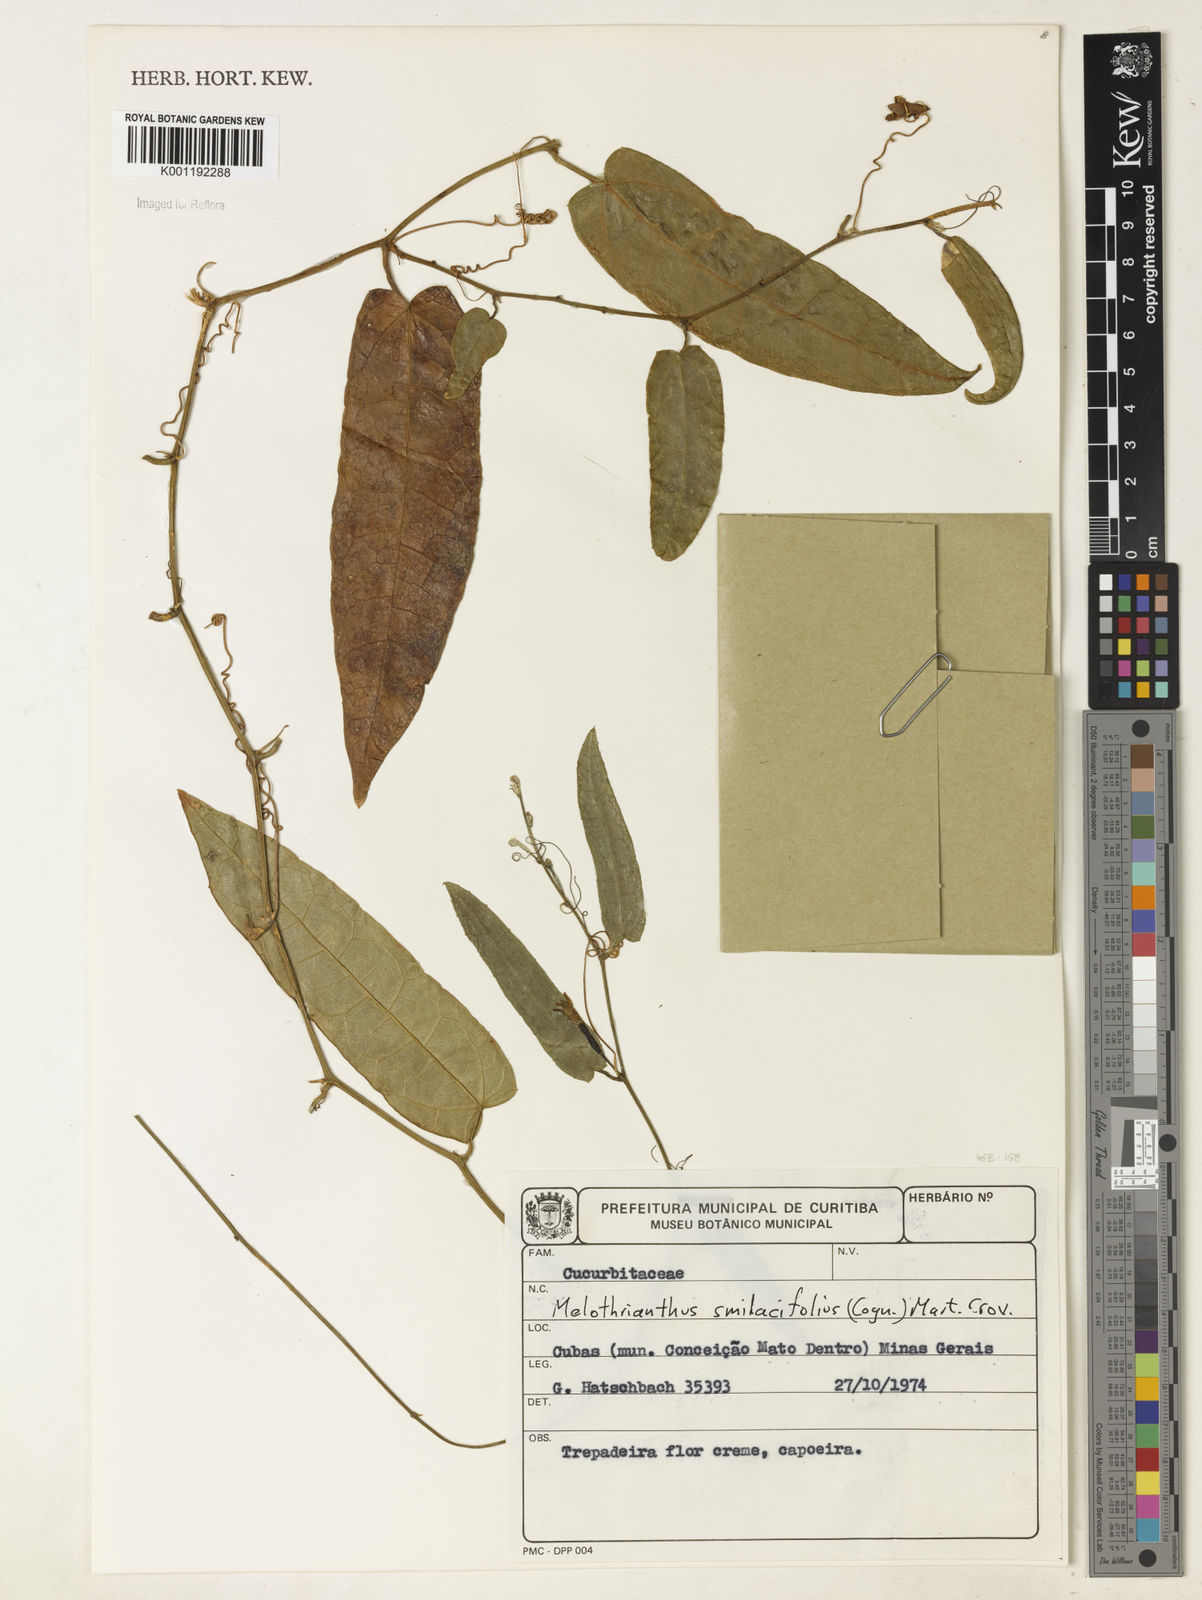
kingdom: Plantae
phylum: Tracheophyta
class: Magnoliopsida
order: Cucurbitales
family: Cucurbitaceae
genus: Apodanthera
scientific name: Apodanthera smilacifolia
